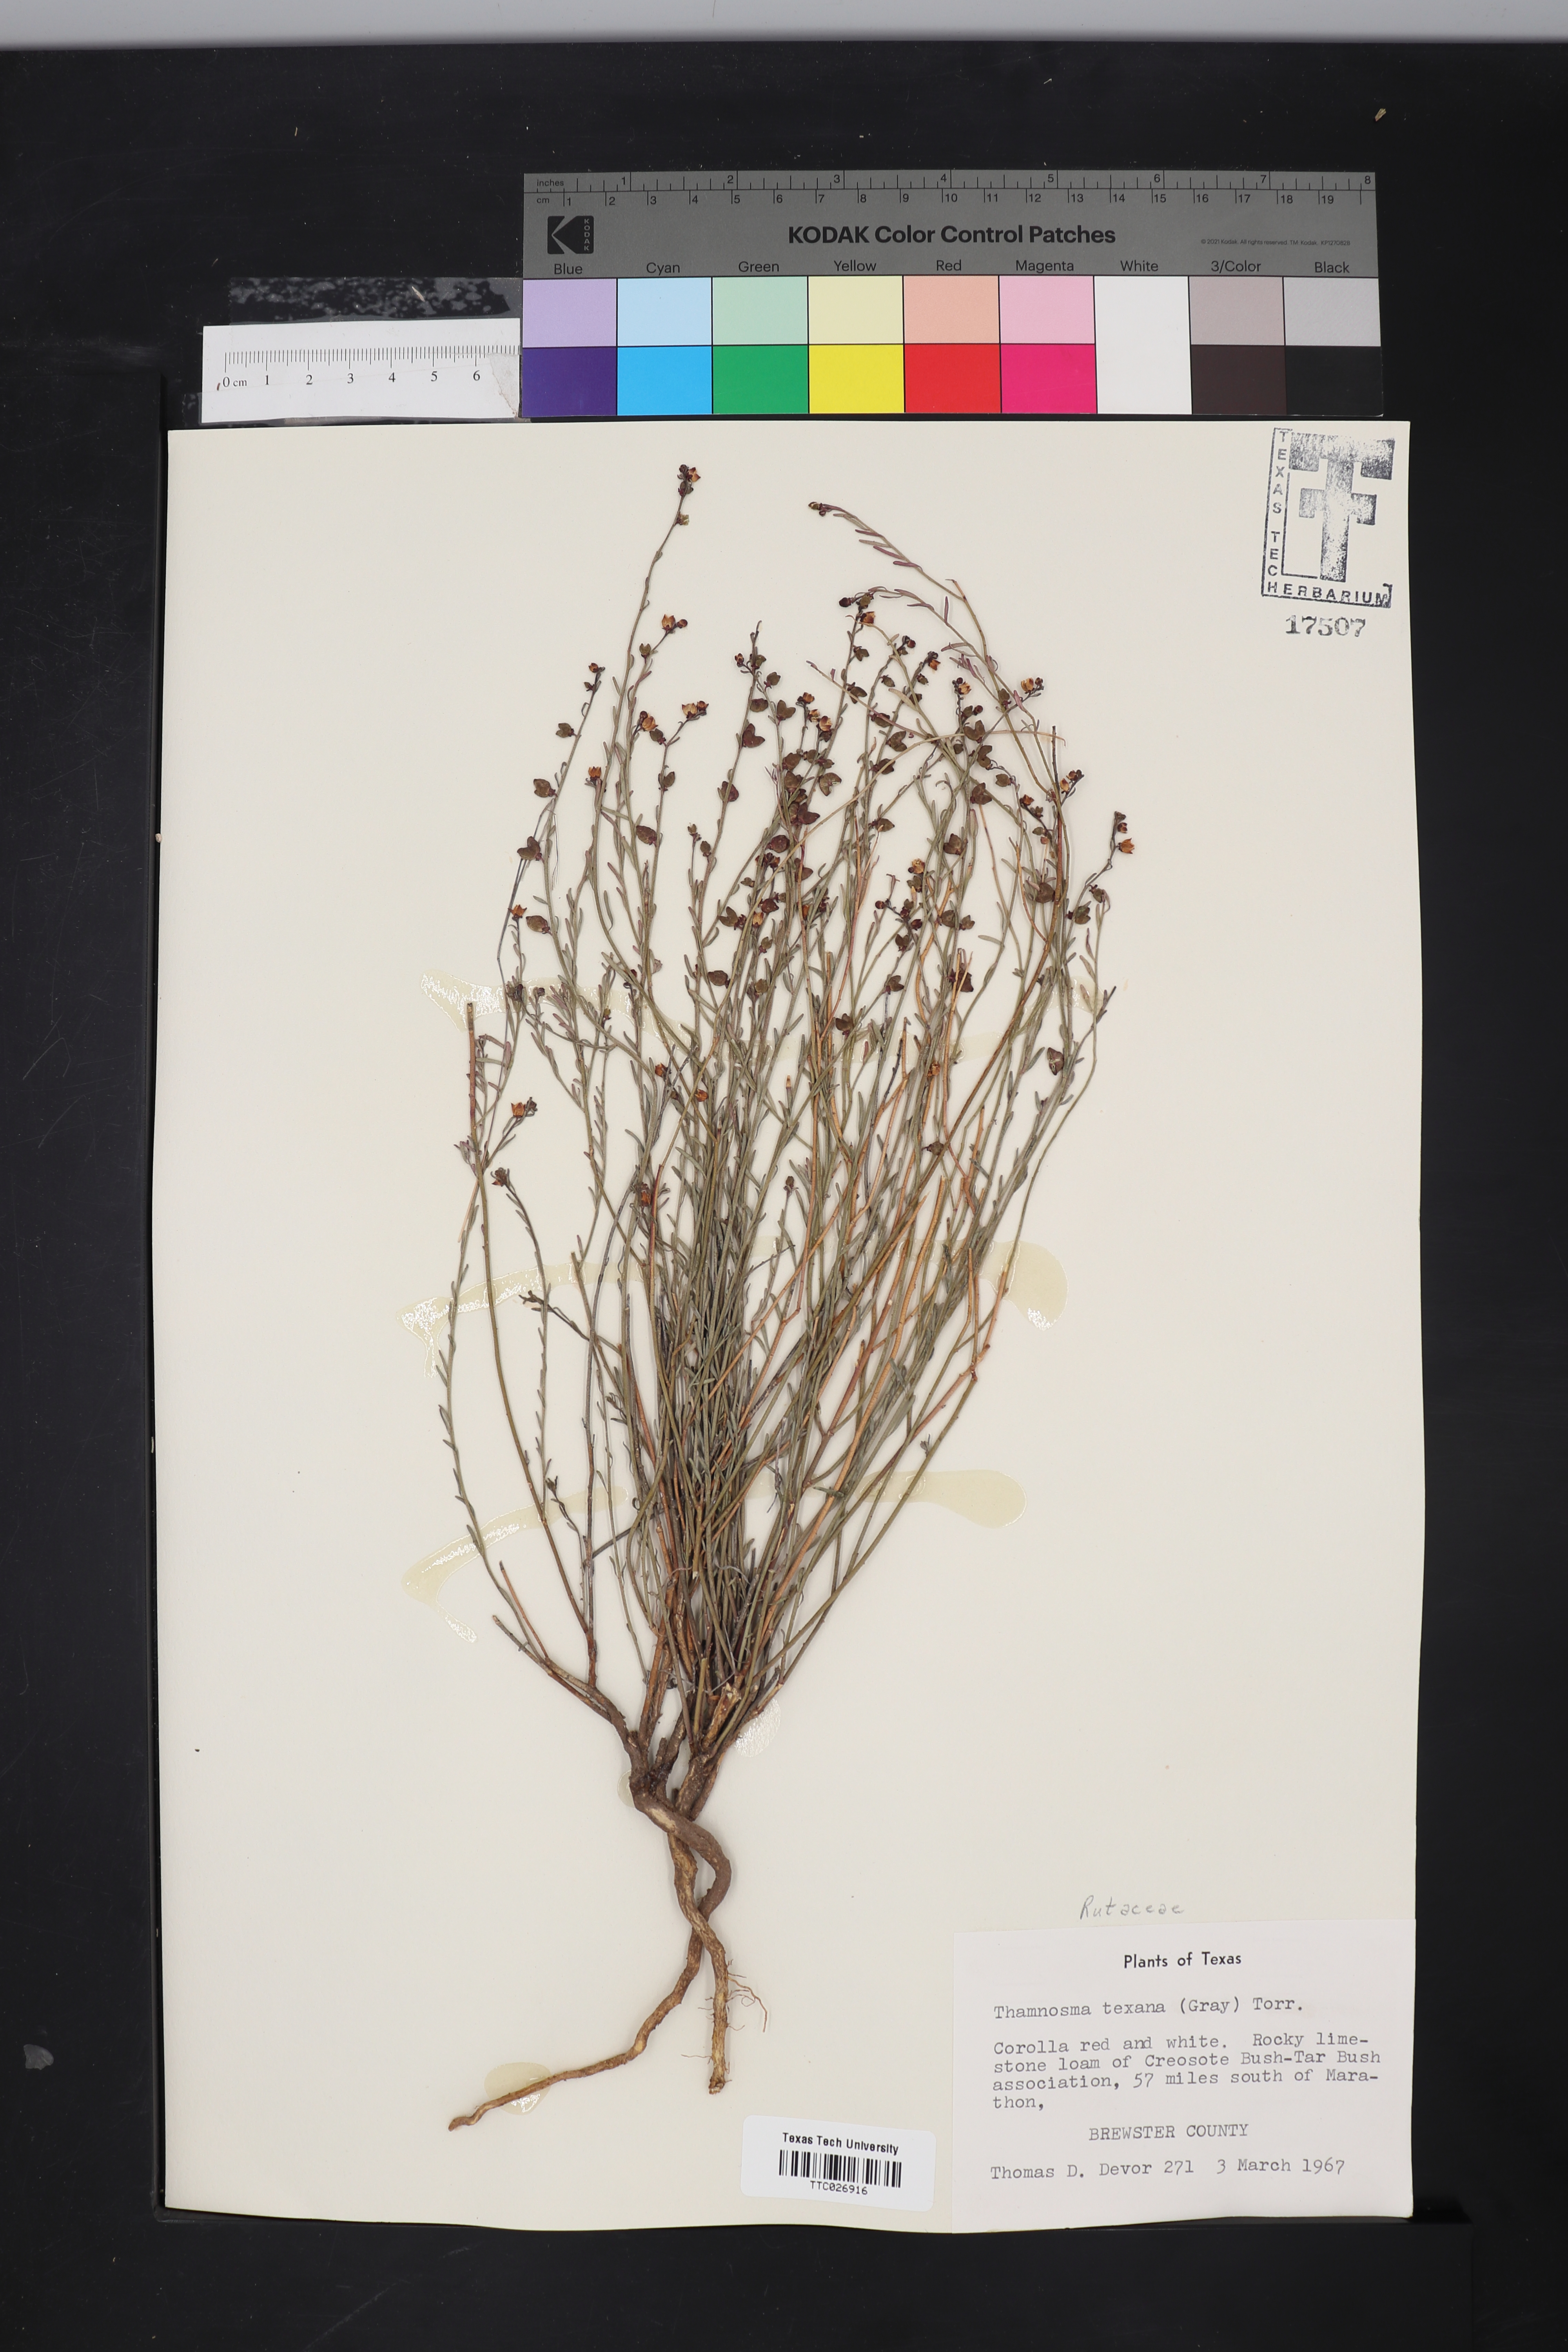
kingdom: Plantae
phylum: Tracheophyta
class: Magnoliopsida
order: Sapindales
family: Rutaceae
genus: Thamnosma
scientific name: Thamnosma texana
